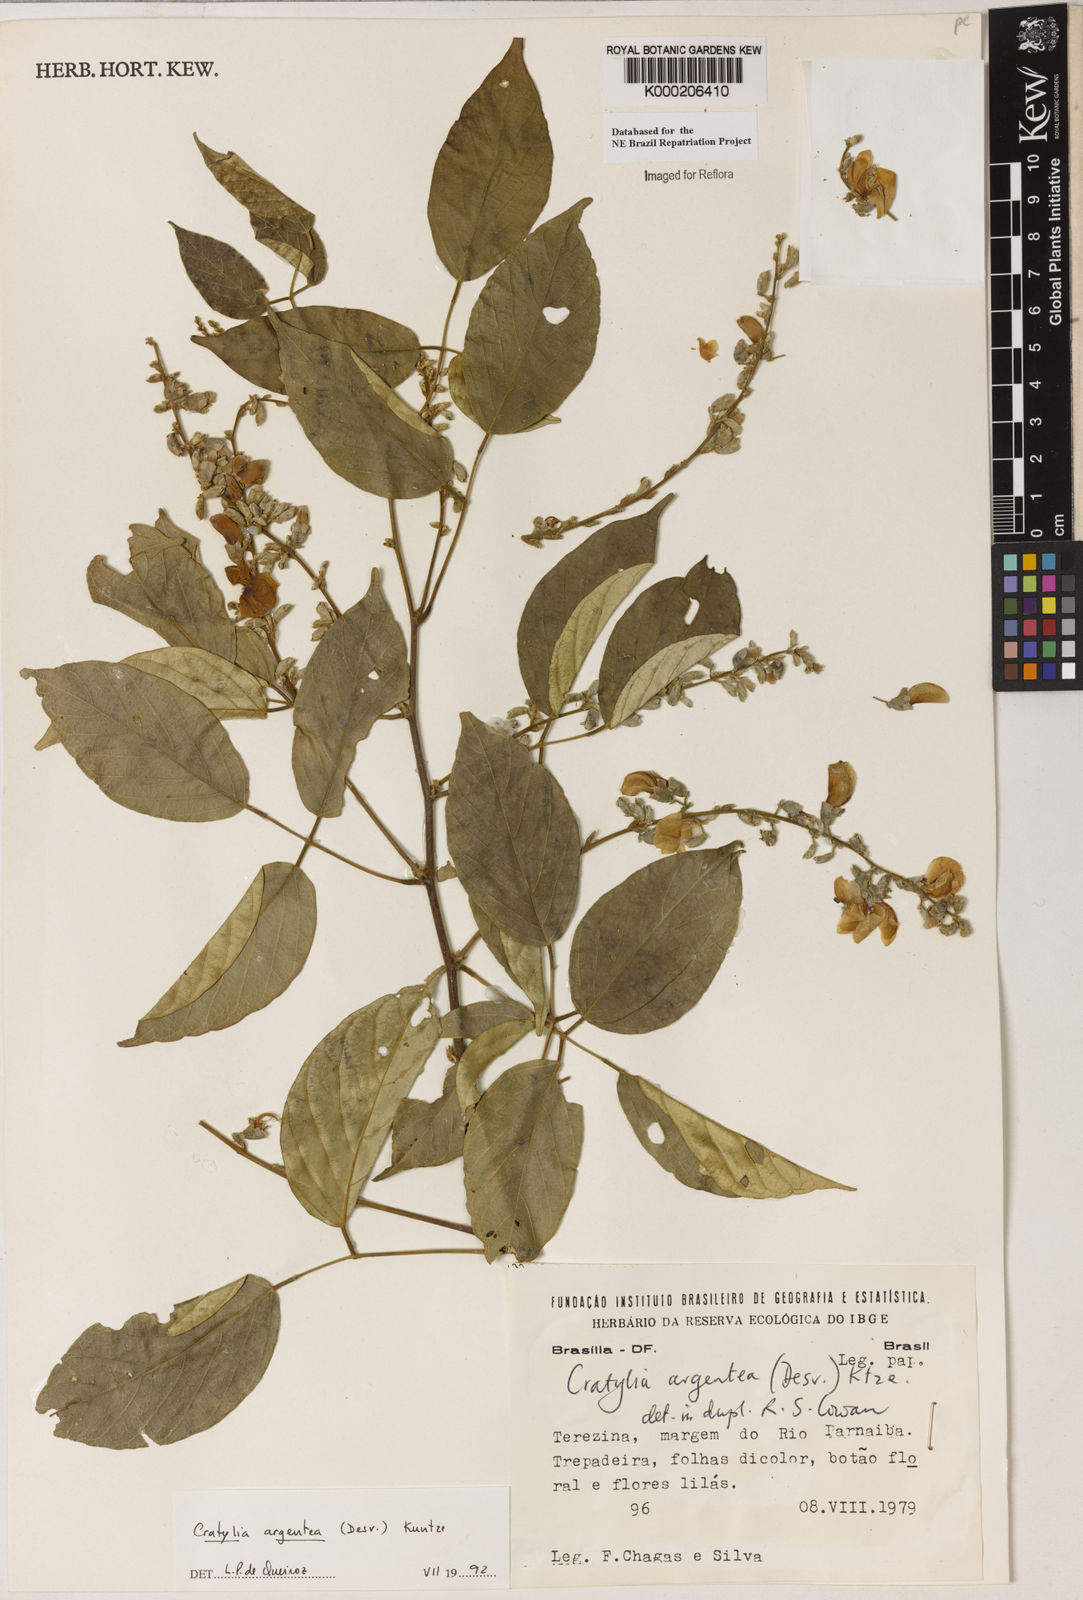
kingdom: Plantae
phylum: Tracheophyta
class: Magnoliopsida
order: Fabales
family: Fabaceae
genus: Cratylia
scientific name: Cratylia argentea
